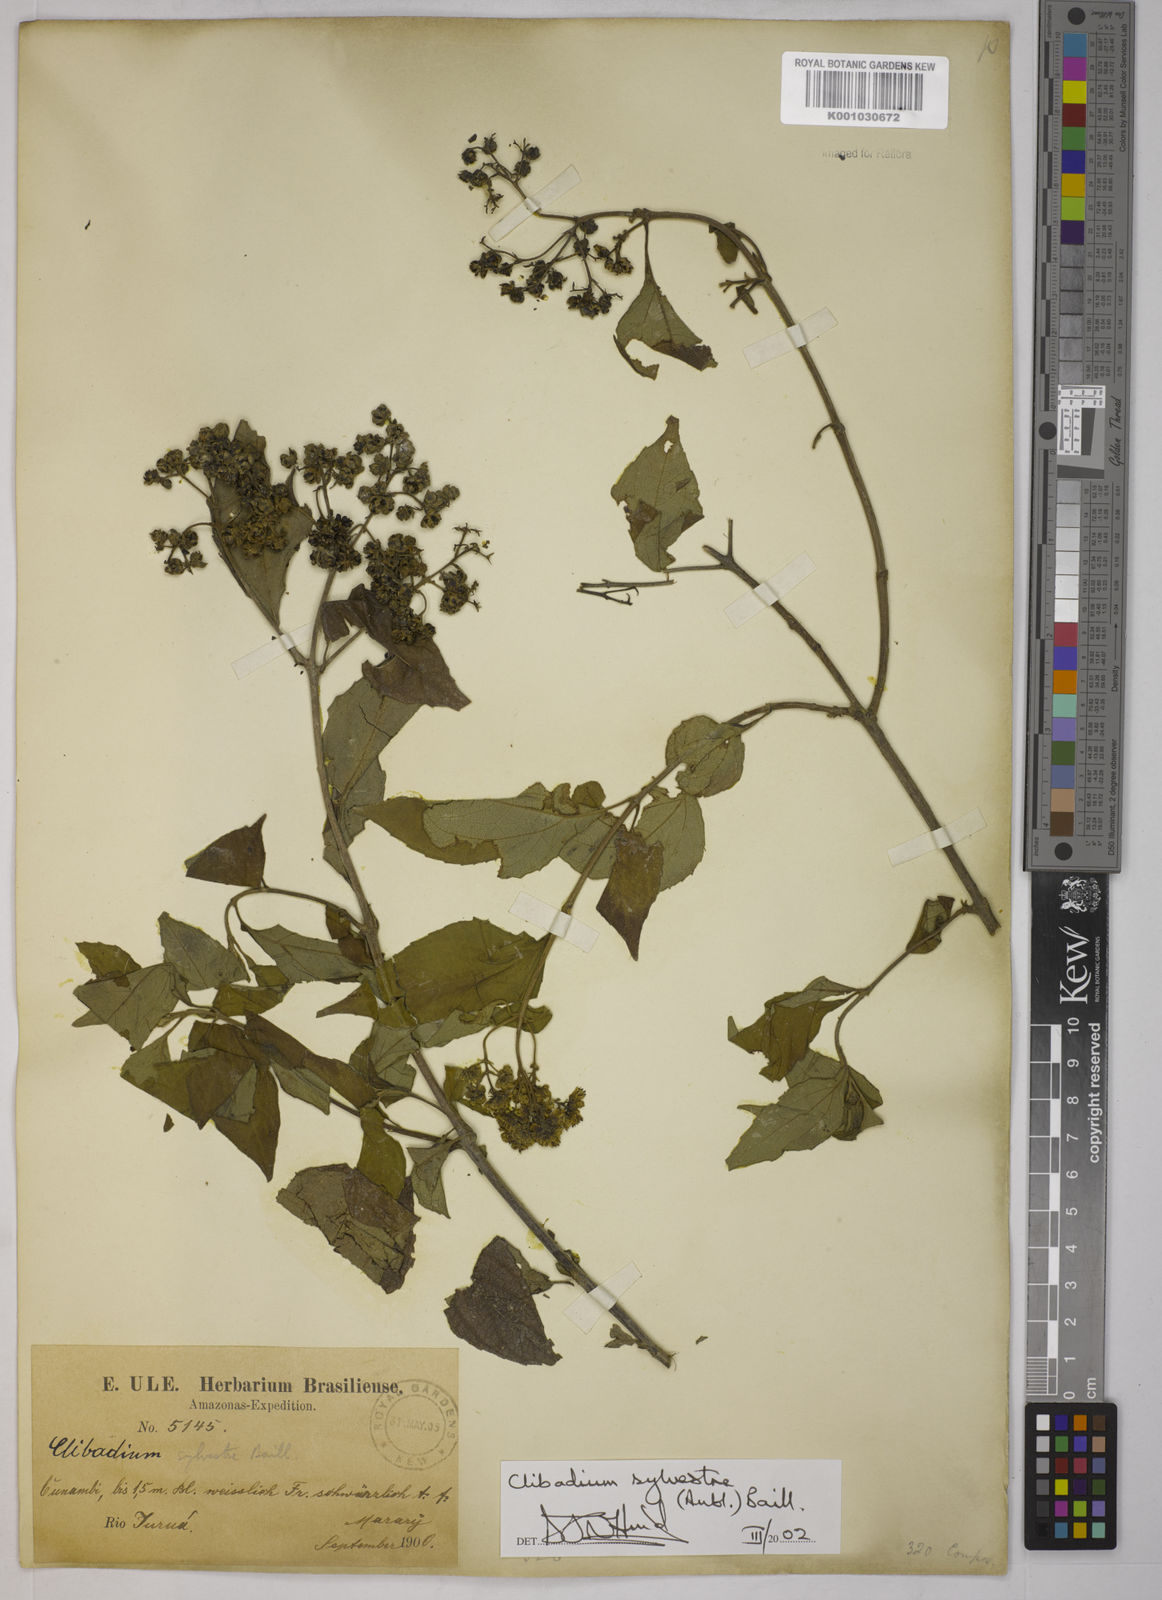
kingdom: Plantae
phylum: Tracheophyta
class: Magnoliopsida
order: Asterales
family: Asteraceae
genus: Clibadium
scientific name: Clibadium sylvestre
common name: Barbasco
